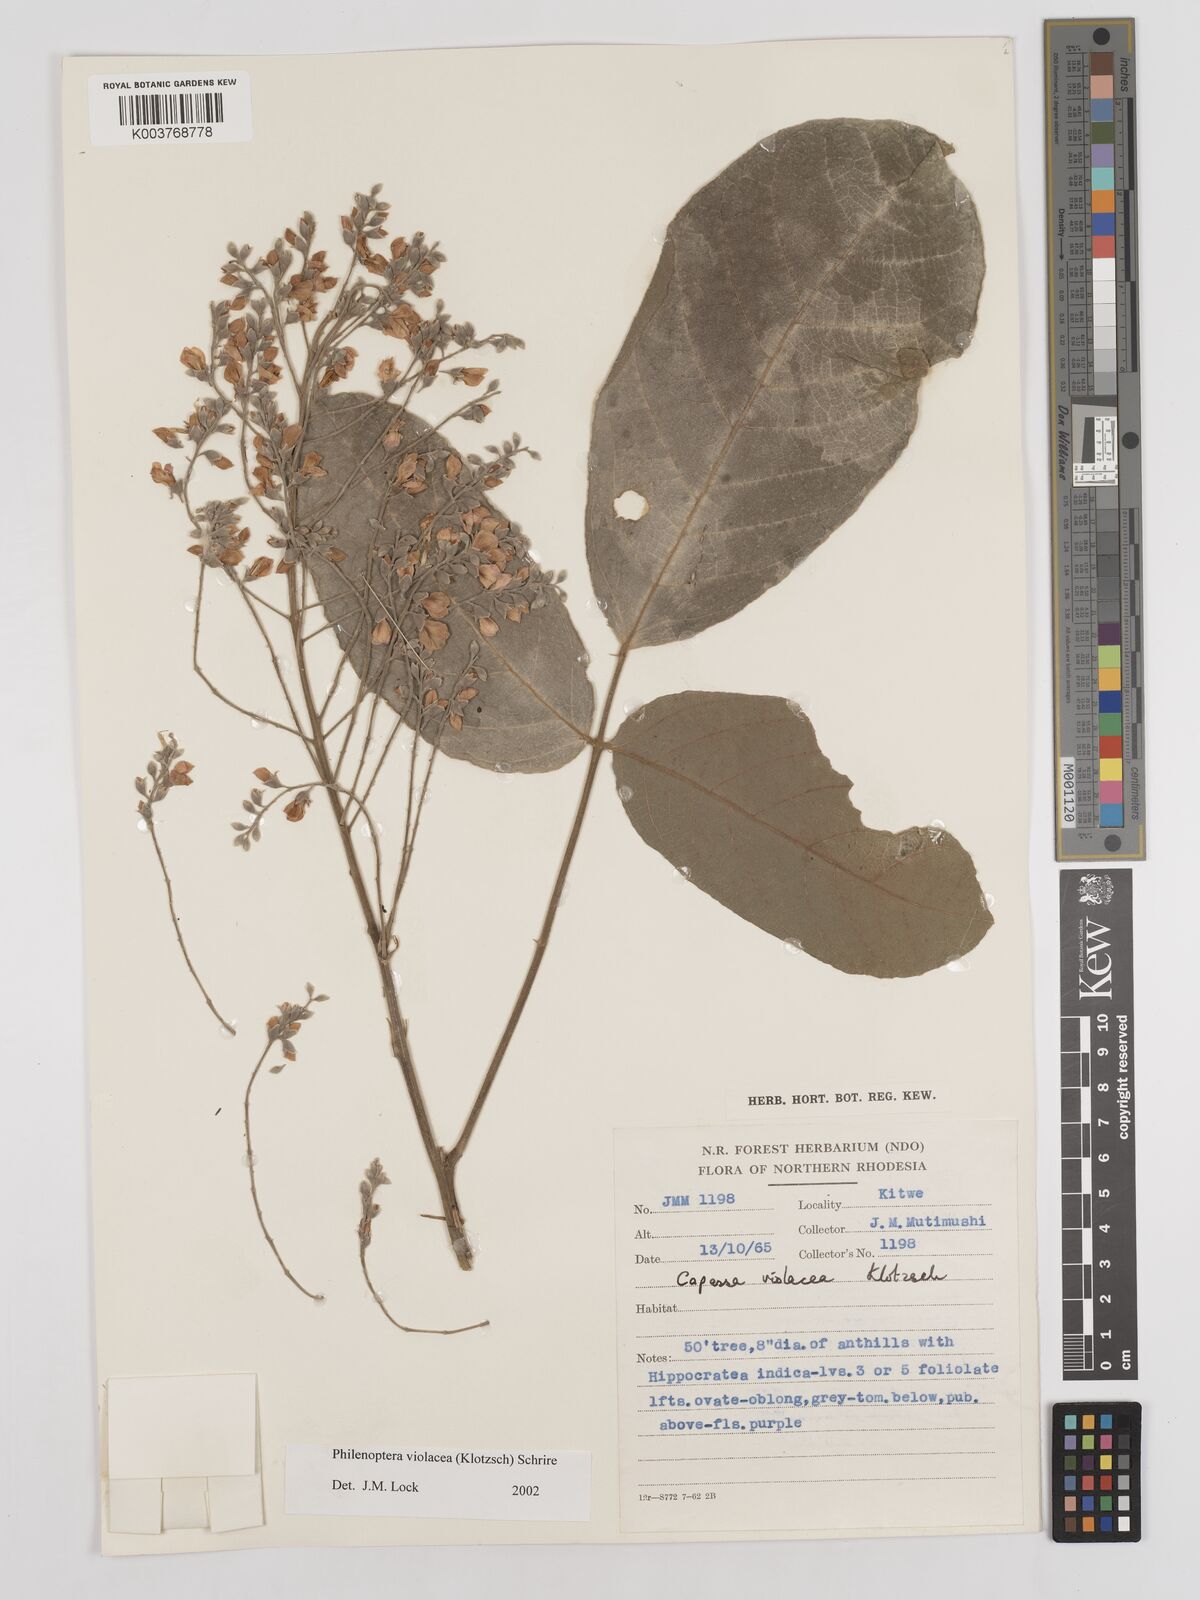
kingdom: Plantae
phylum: Tracheophyta
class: Magnoliopsida
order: Fabales
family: Fabaceae
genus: Philenoptera
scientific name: Philenoptera violacea
